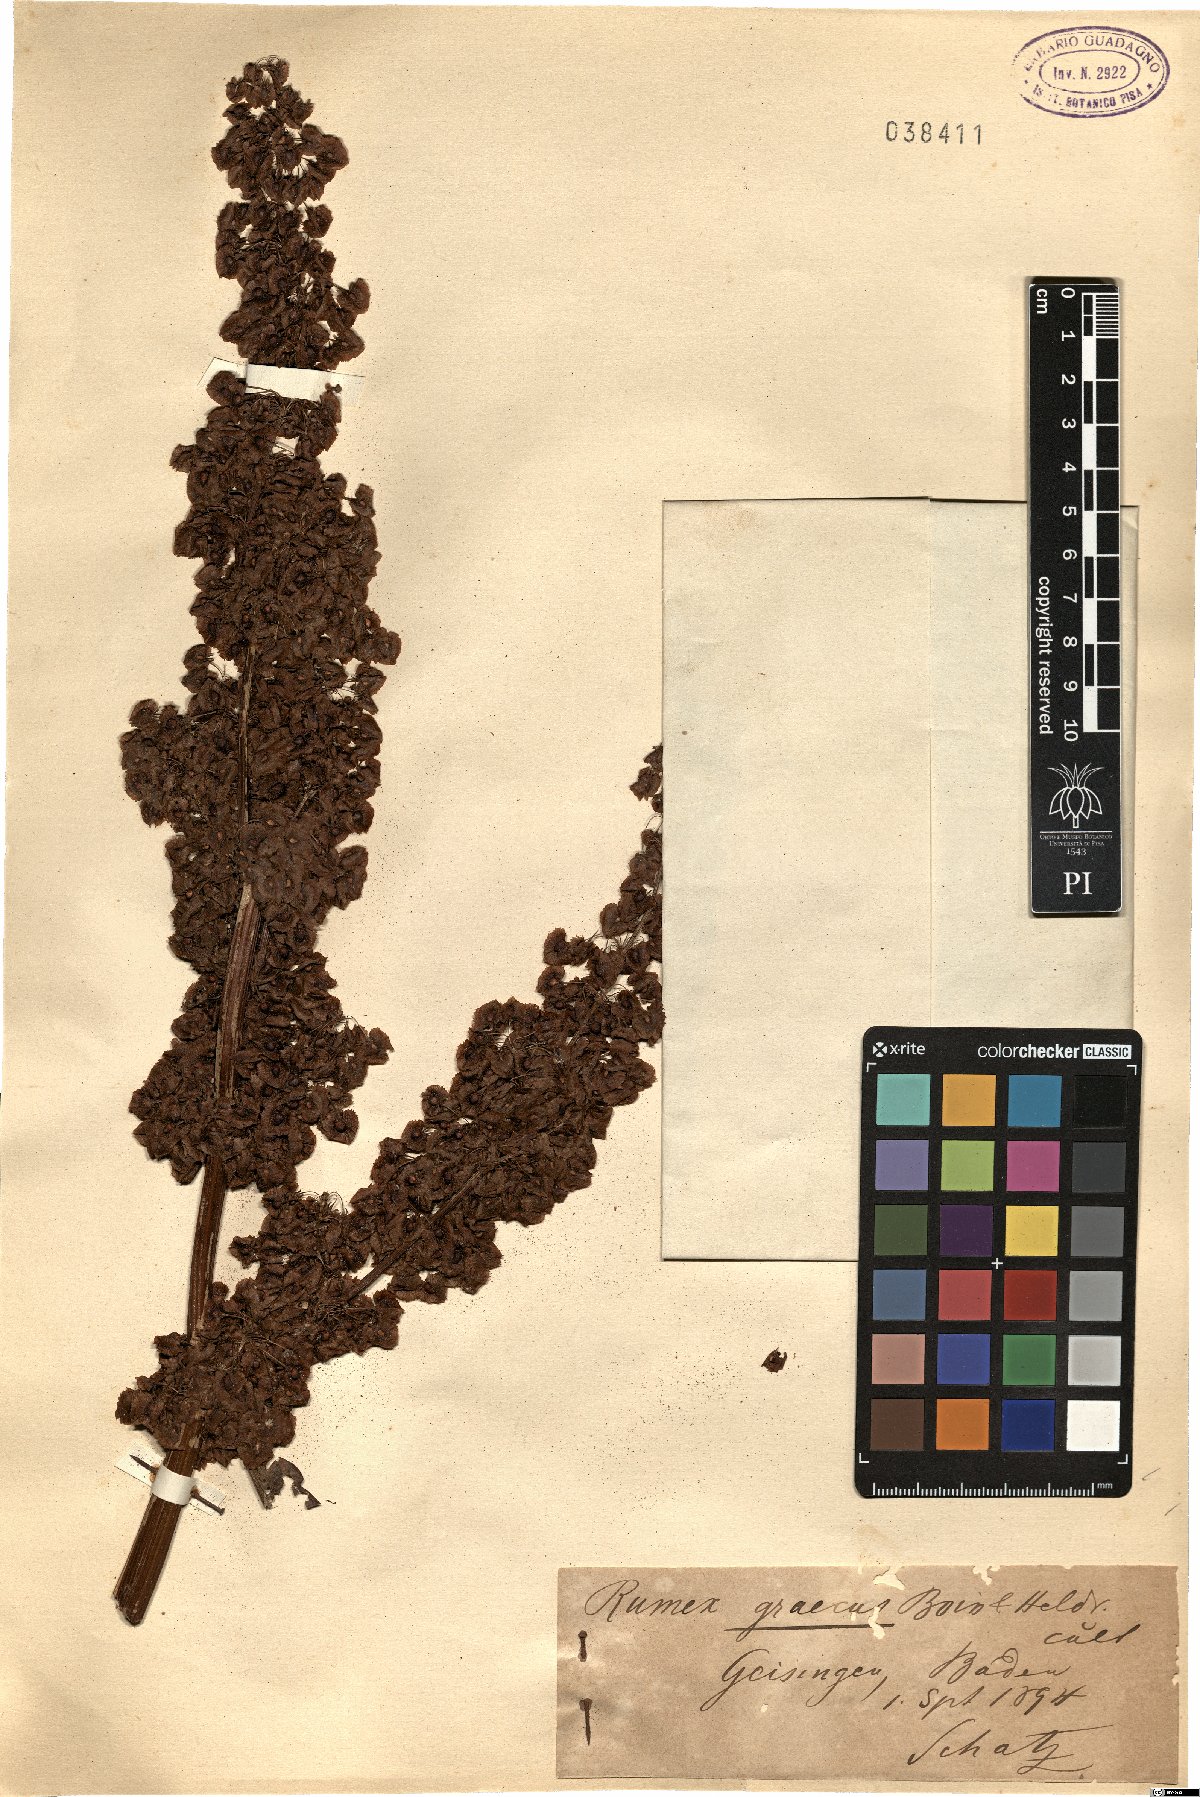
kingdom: Plantae
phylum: Tracheophyta
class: Magnoliopsida
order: Caryophyllales
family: Polygonaceae
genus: Rumex
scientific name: Rumex cristatus
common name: Greek dock
